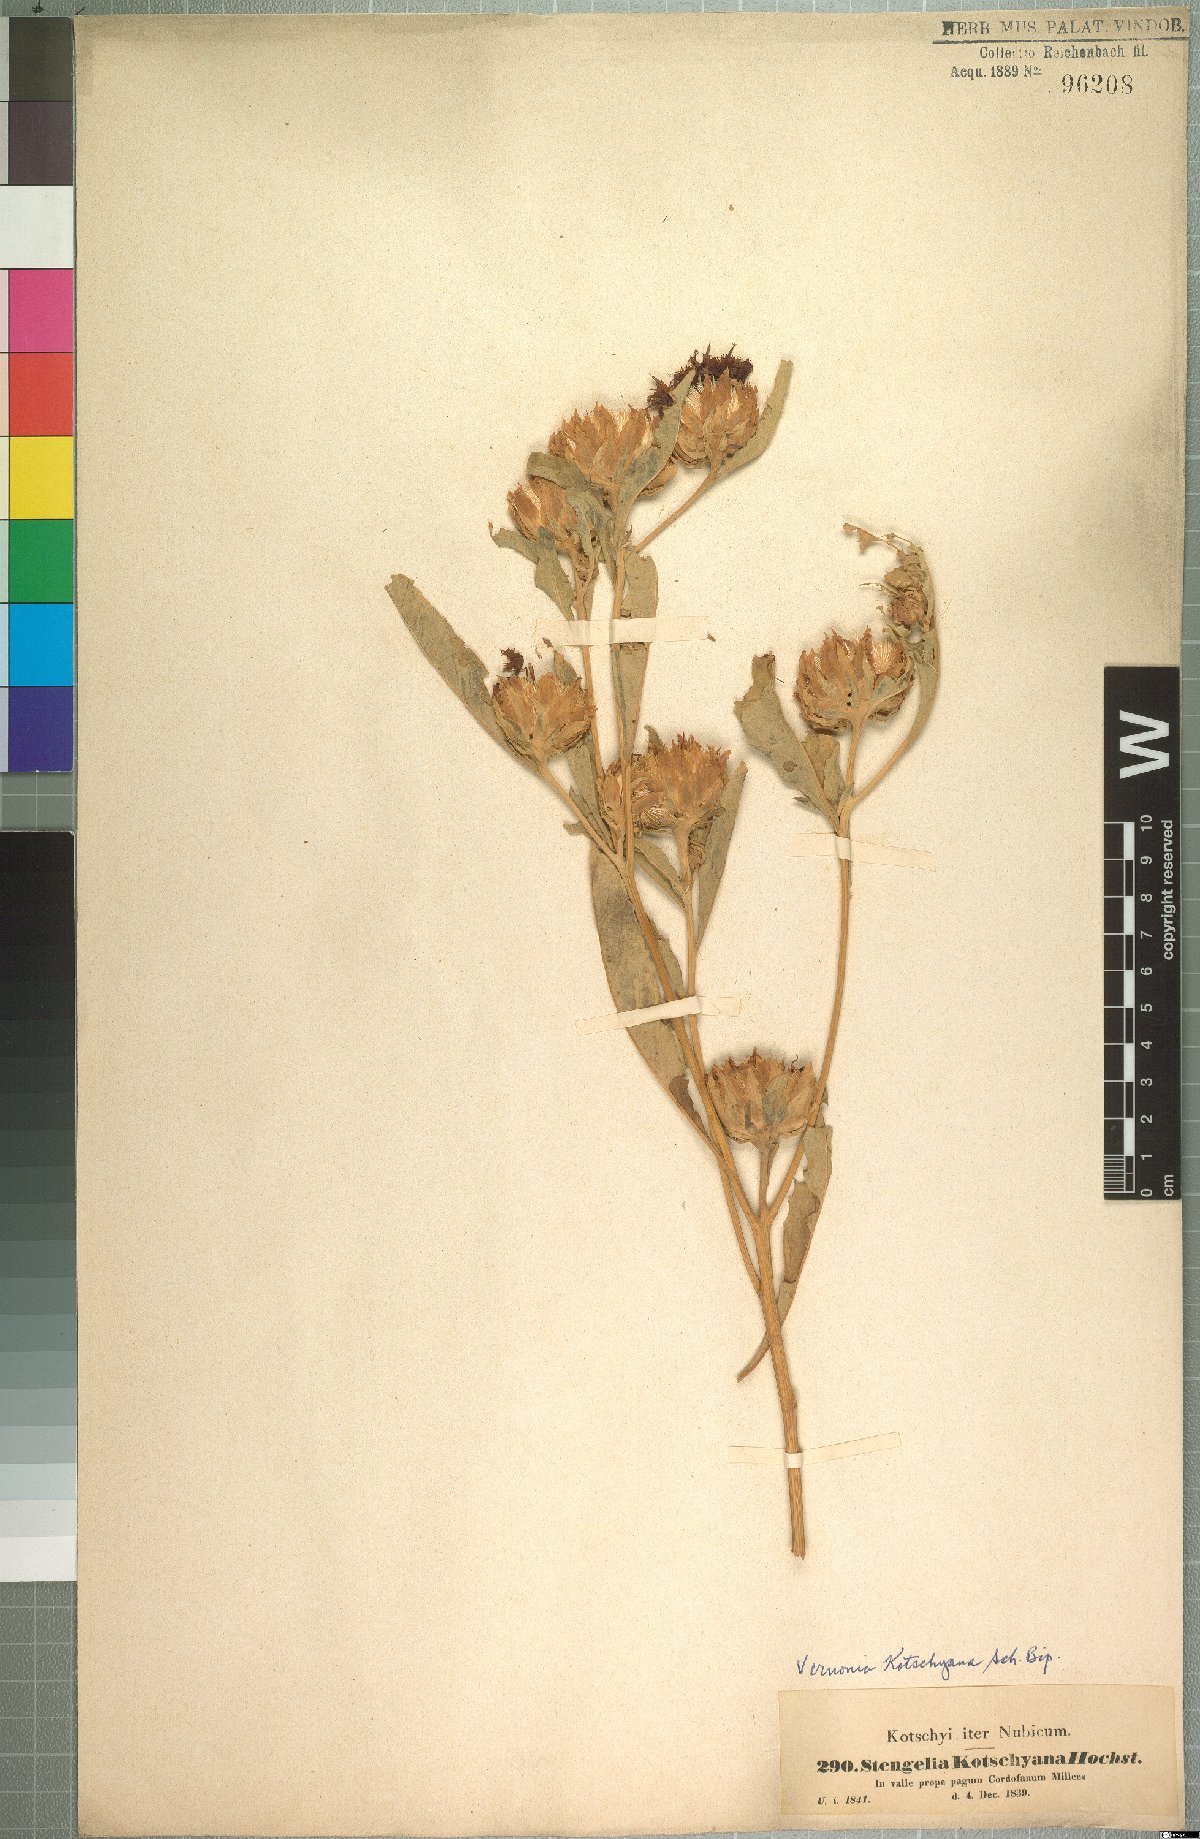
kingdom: Plantae
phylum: Tracheophyta
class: Magnoliopsida
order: Asterales
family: Asteraceae
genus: Baccharoides
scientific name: Baccharoides adoensis
